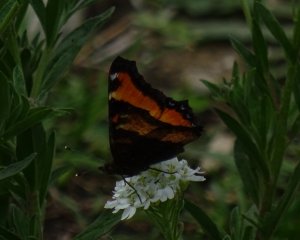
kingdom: Animalia
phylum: Arthropoda
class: Insecta
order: Lepidoptera
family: Nymphalidae
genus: Aglais
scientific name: Aglais milberti
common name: Milbert's Tortoiseshell
